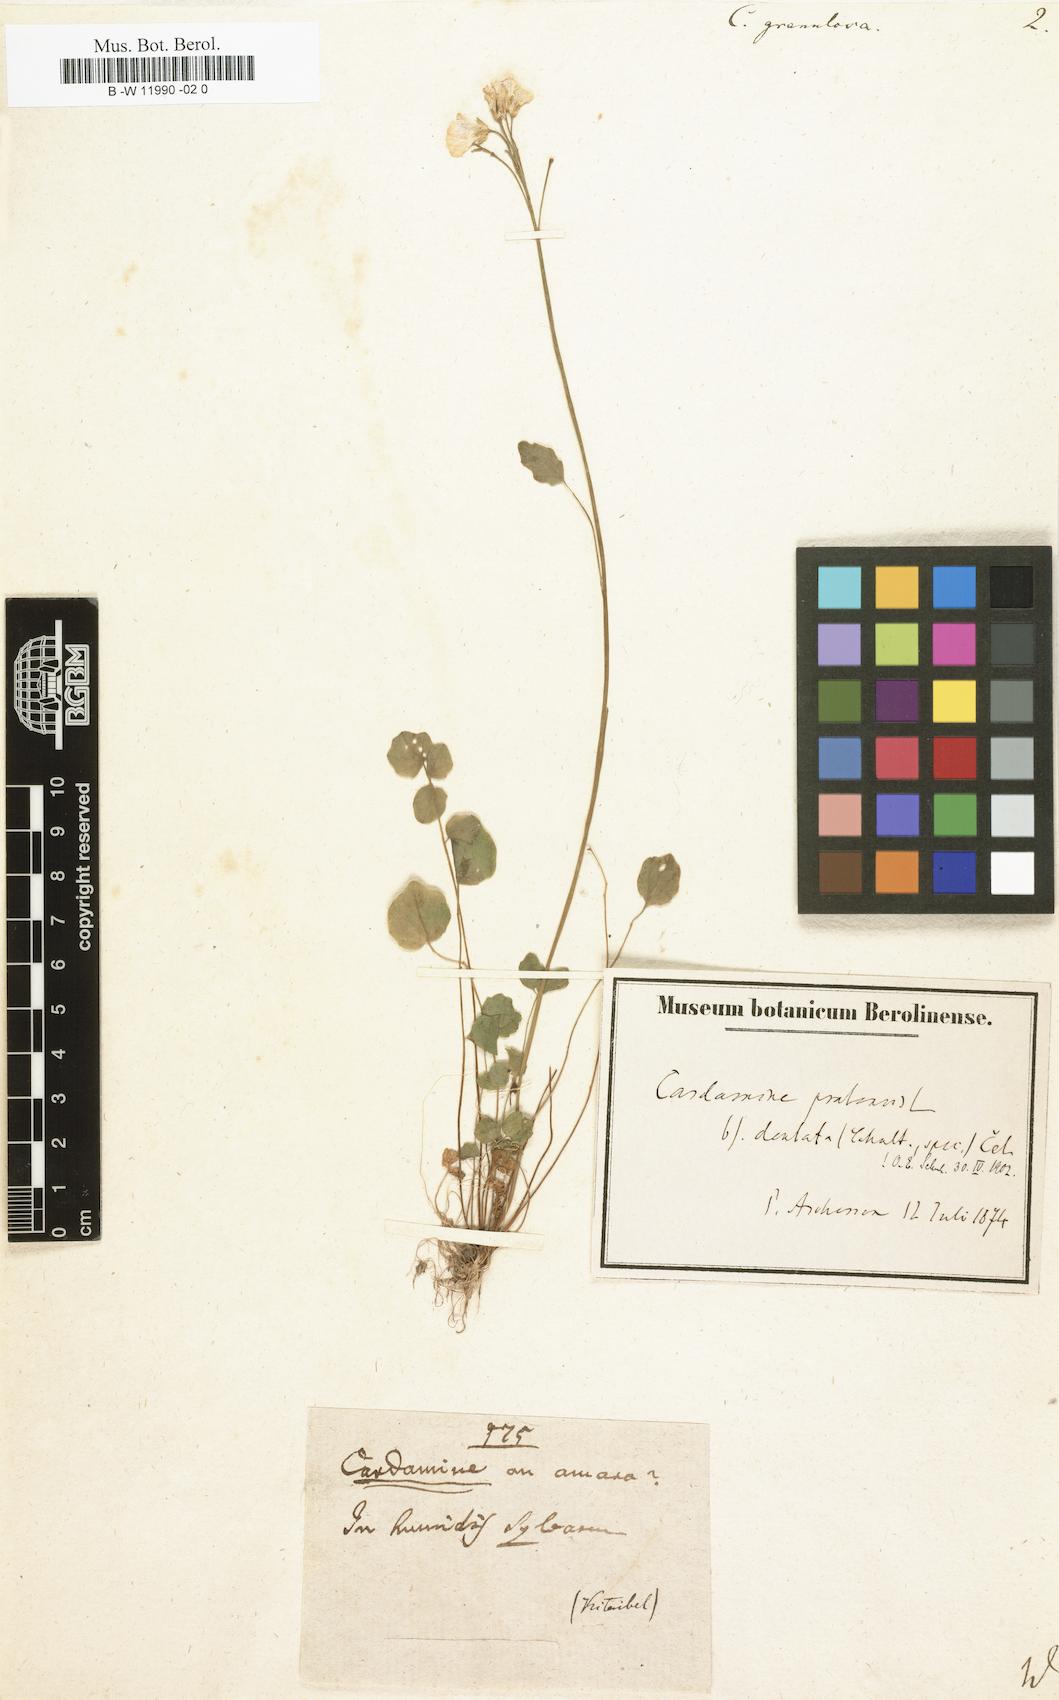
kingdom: Plantae
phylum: Tracheophyta
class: Magnoliopsida
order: Brassicales
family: Brassicaceae
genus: Cardamine
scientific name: Cardamine granulosa
